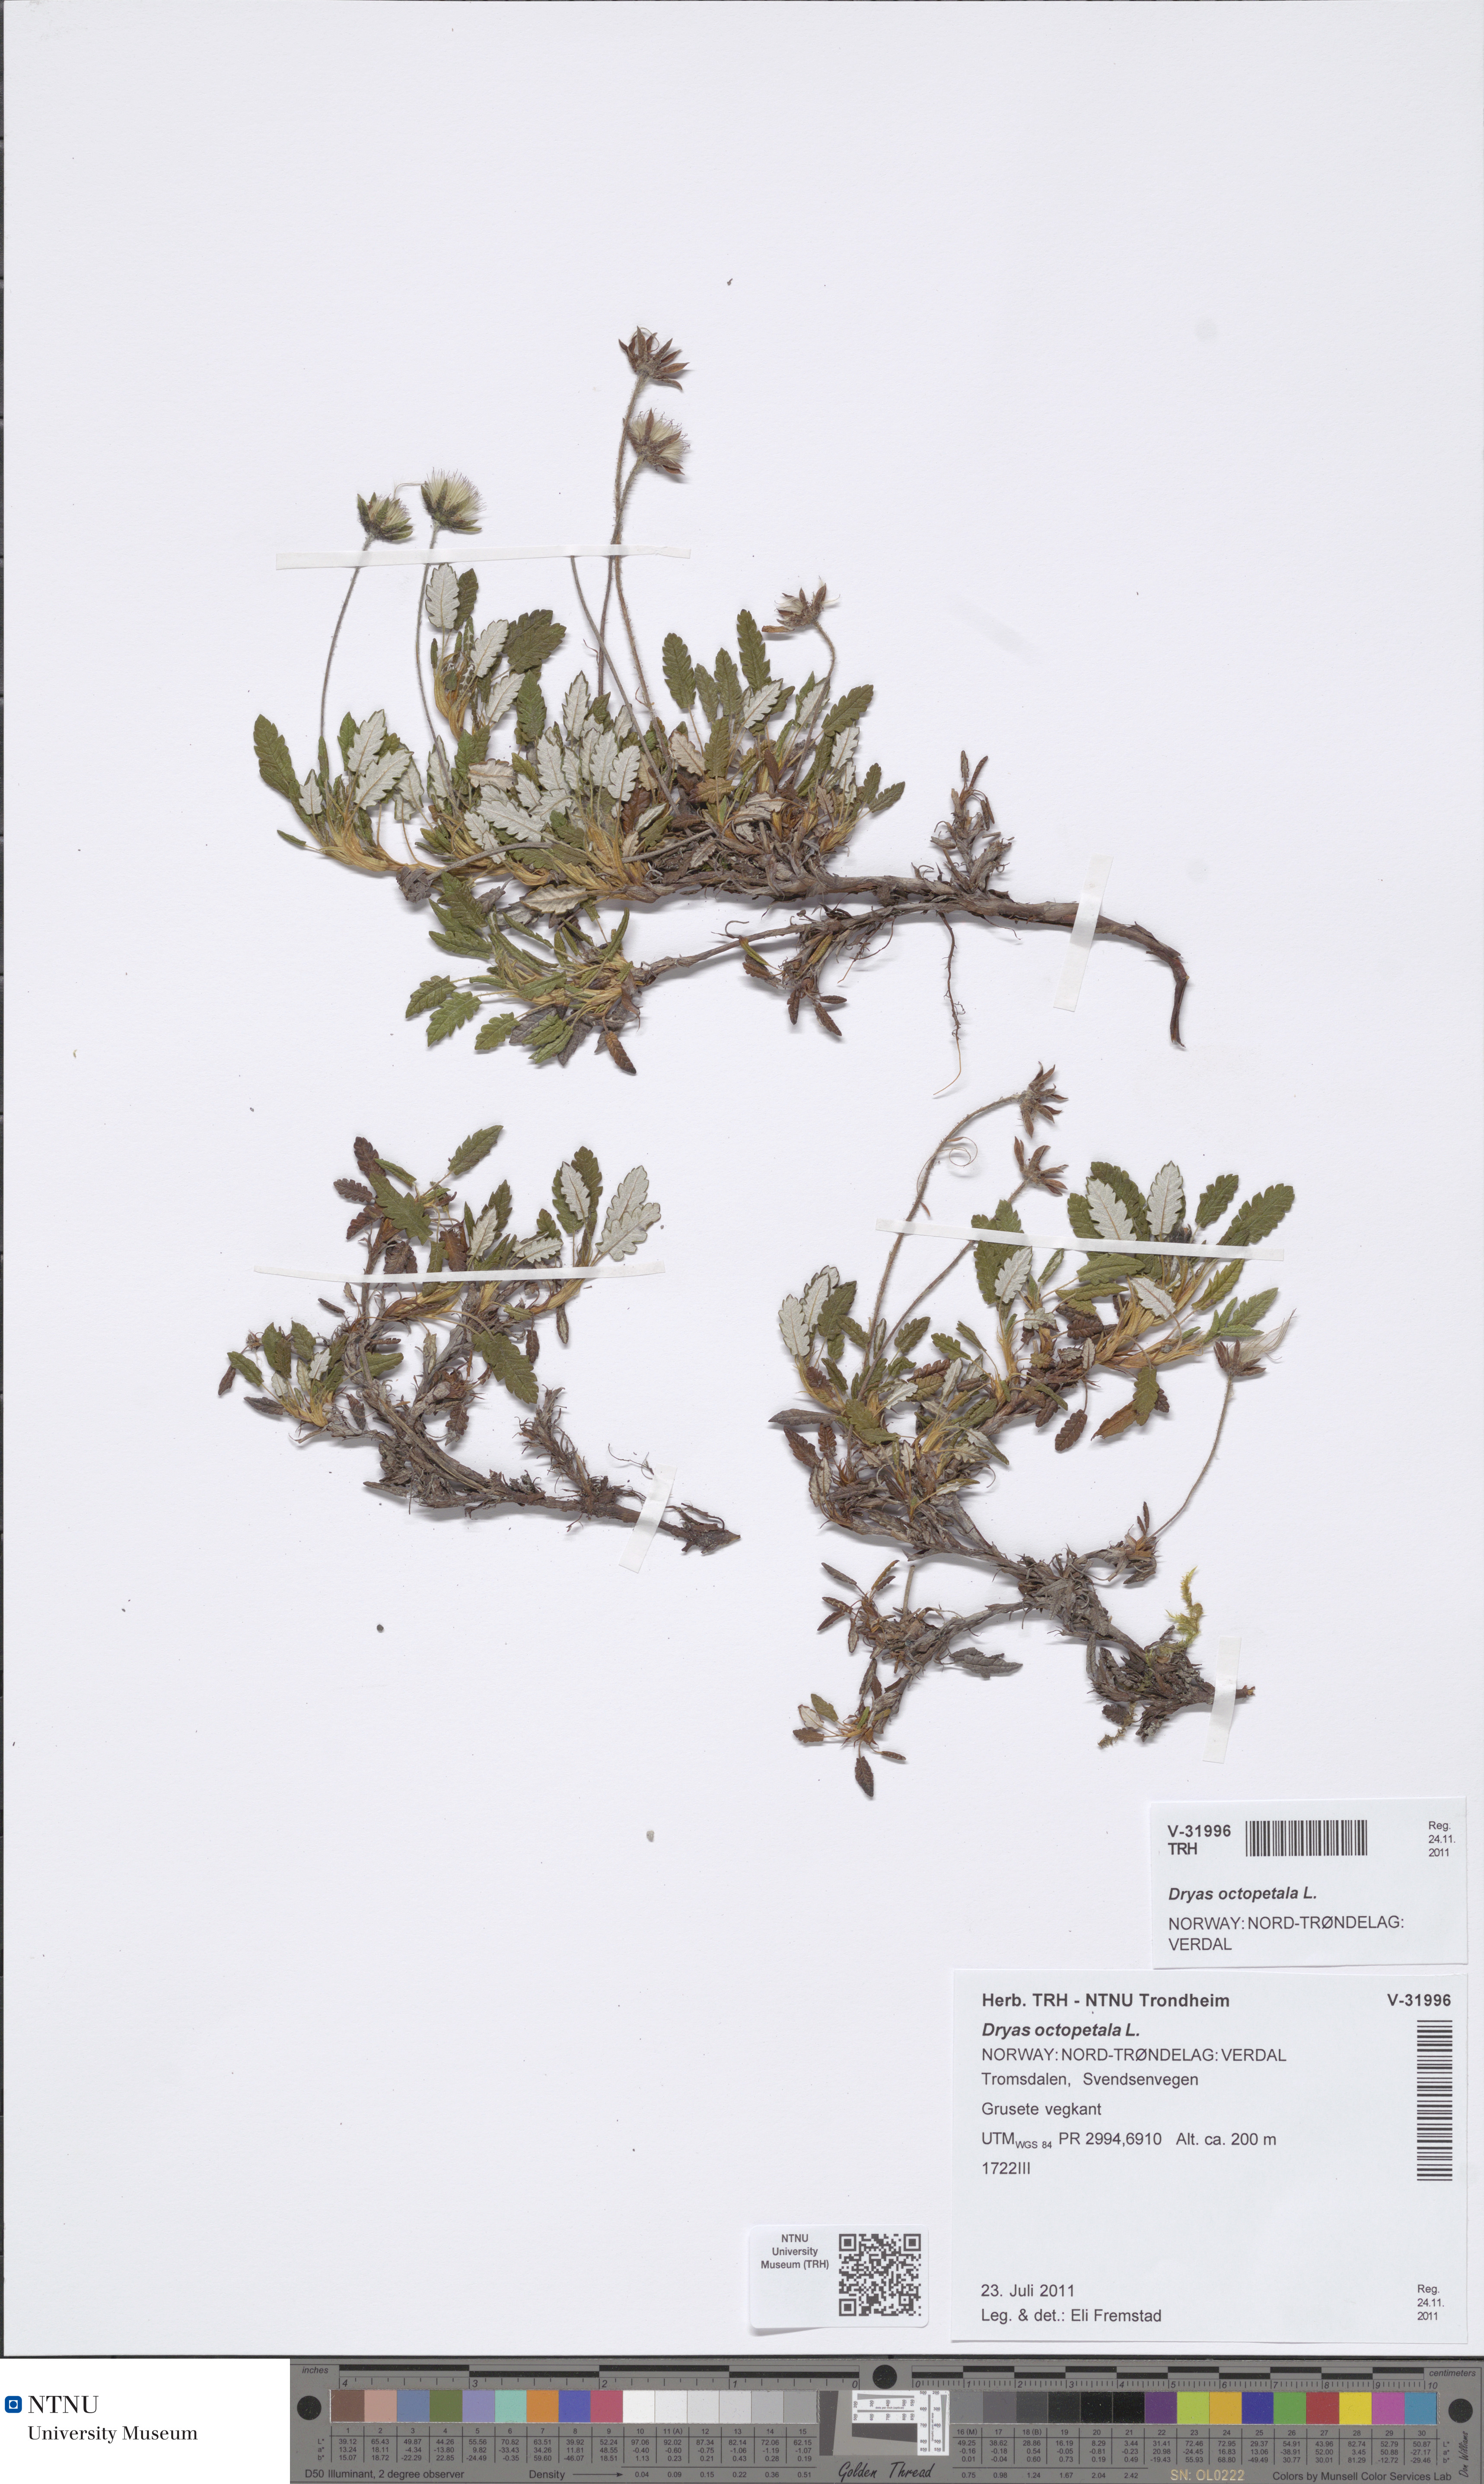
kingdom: Plantae
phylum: Tracheophyta
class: Magnoliopsida
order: Rosales
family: Rosaceae
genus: Dryas
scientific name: Dryas octopetala
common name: Eight-petal mountain-avens
